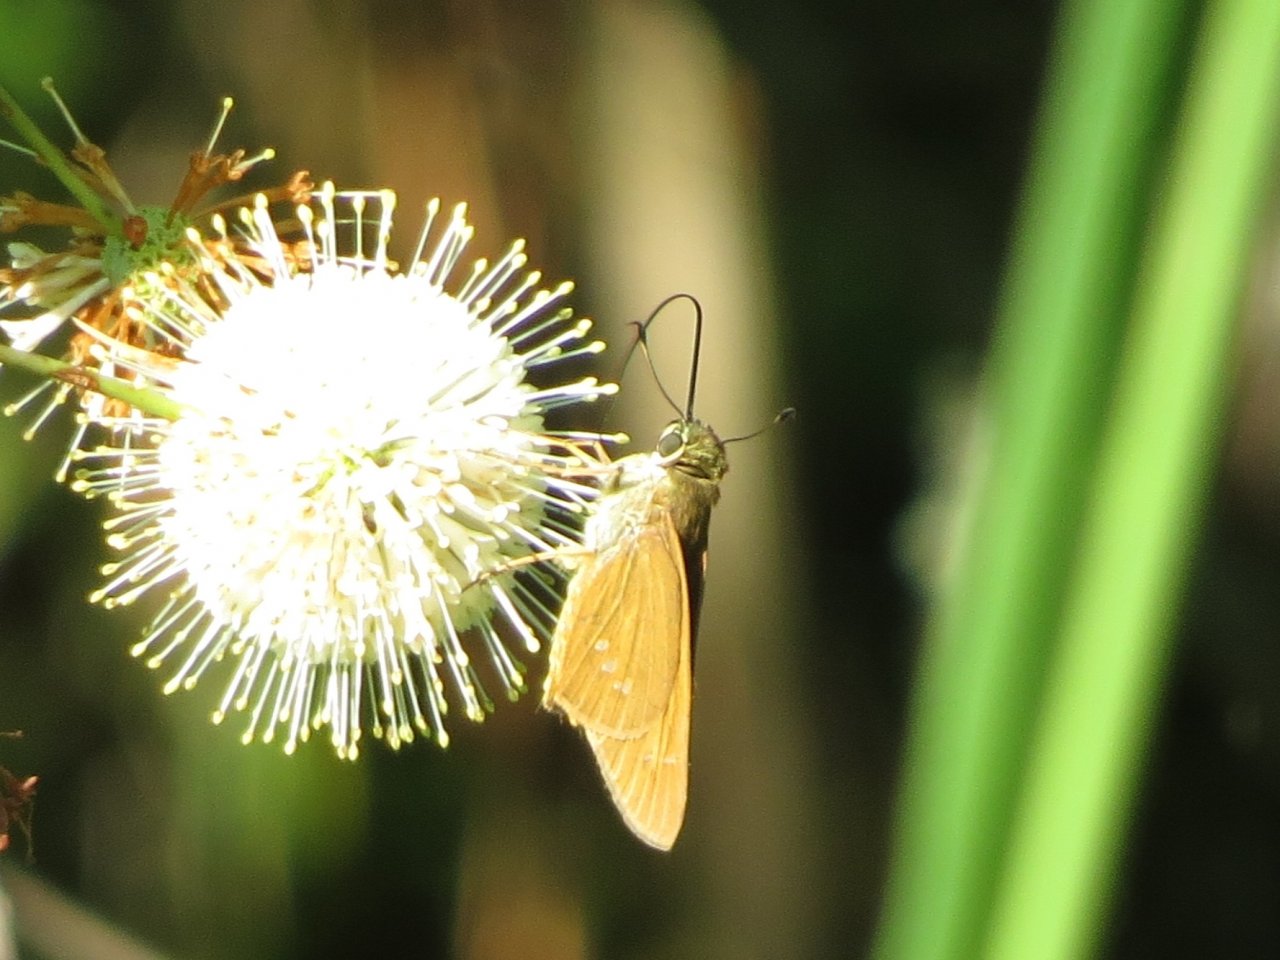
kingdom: Animalia
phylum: Arthropoda
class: Insecta
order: Lepidoptera
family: Hesperiidae
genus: Calpodes
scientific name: Calpodes ethlius
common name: Brazilian Skipper
